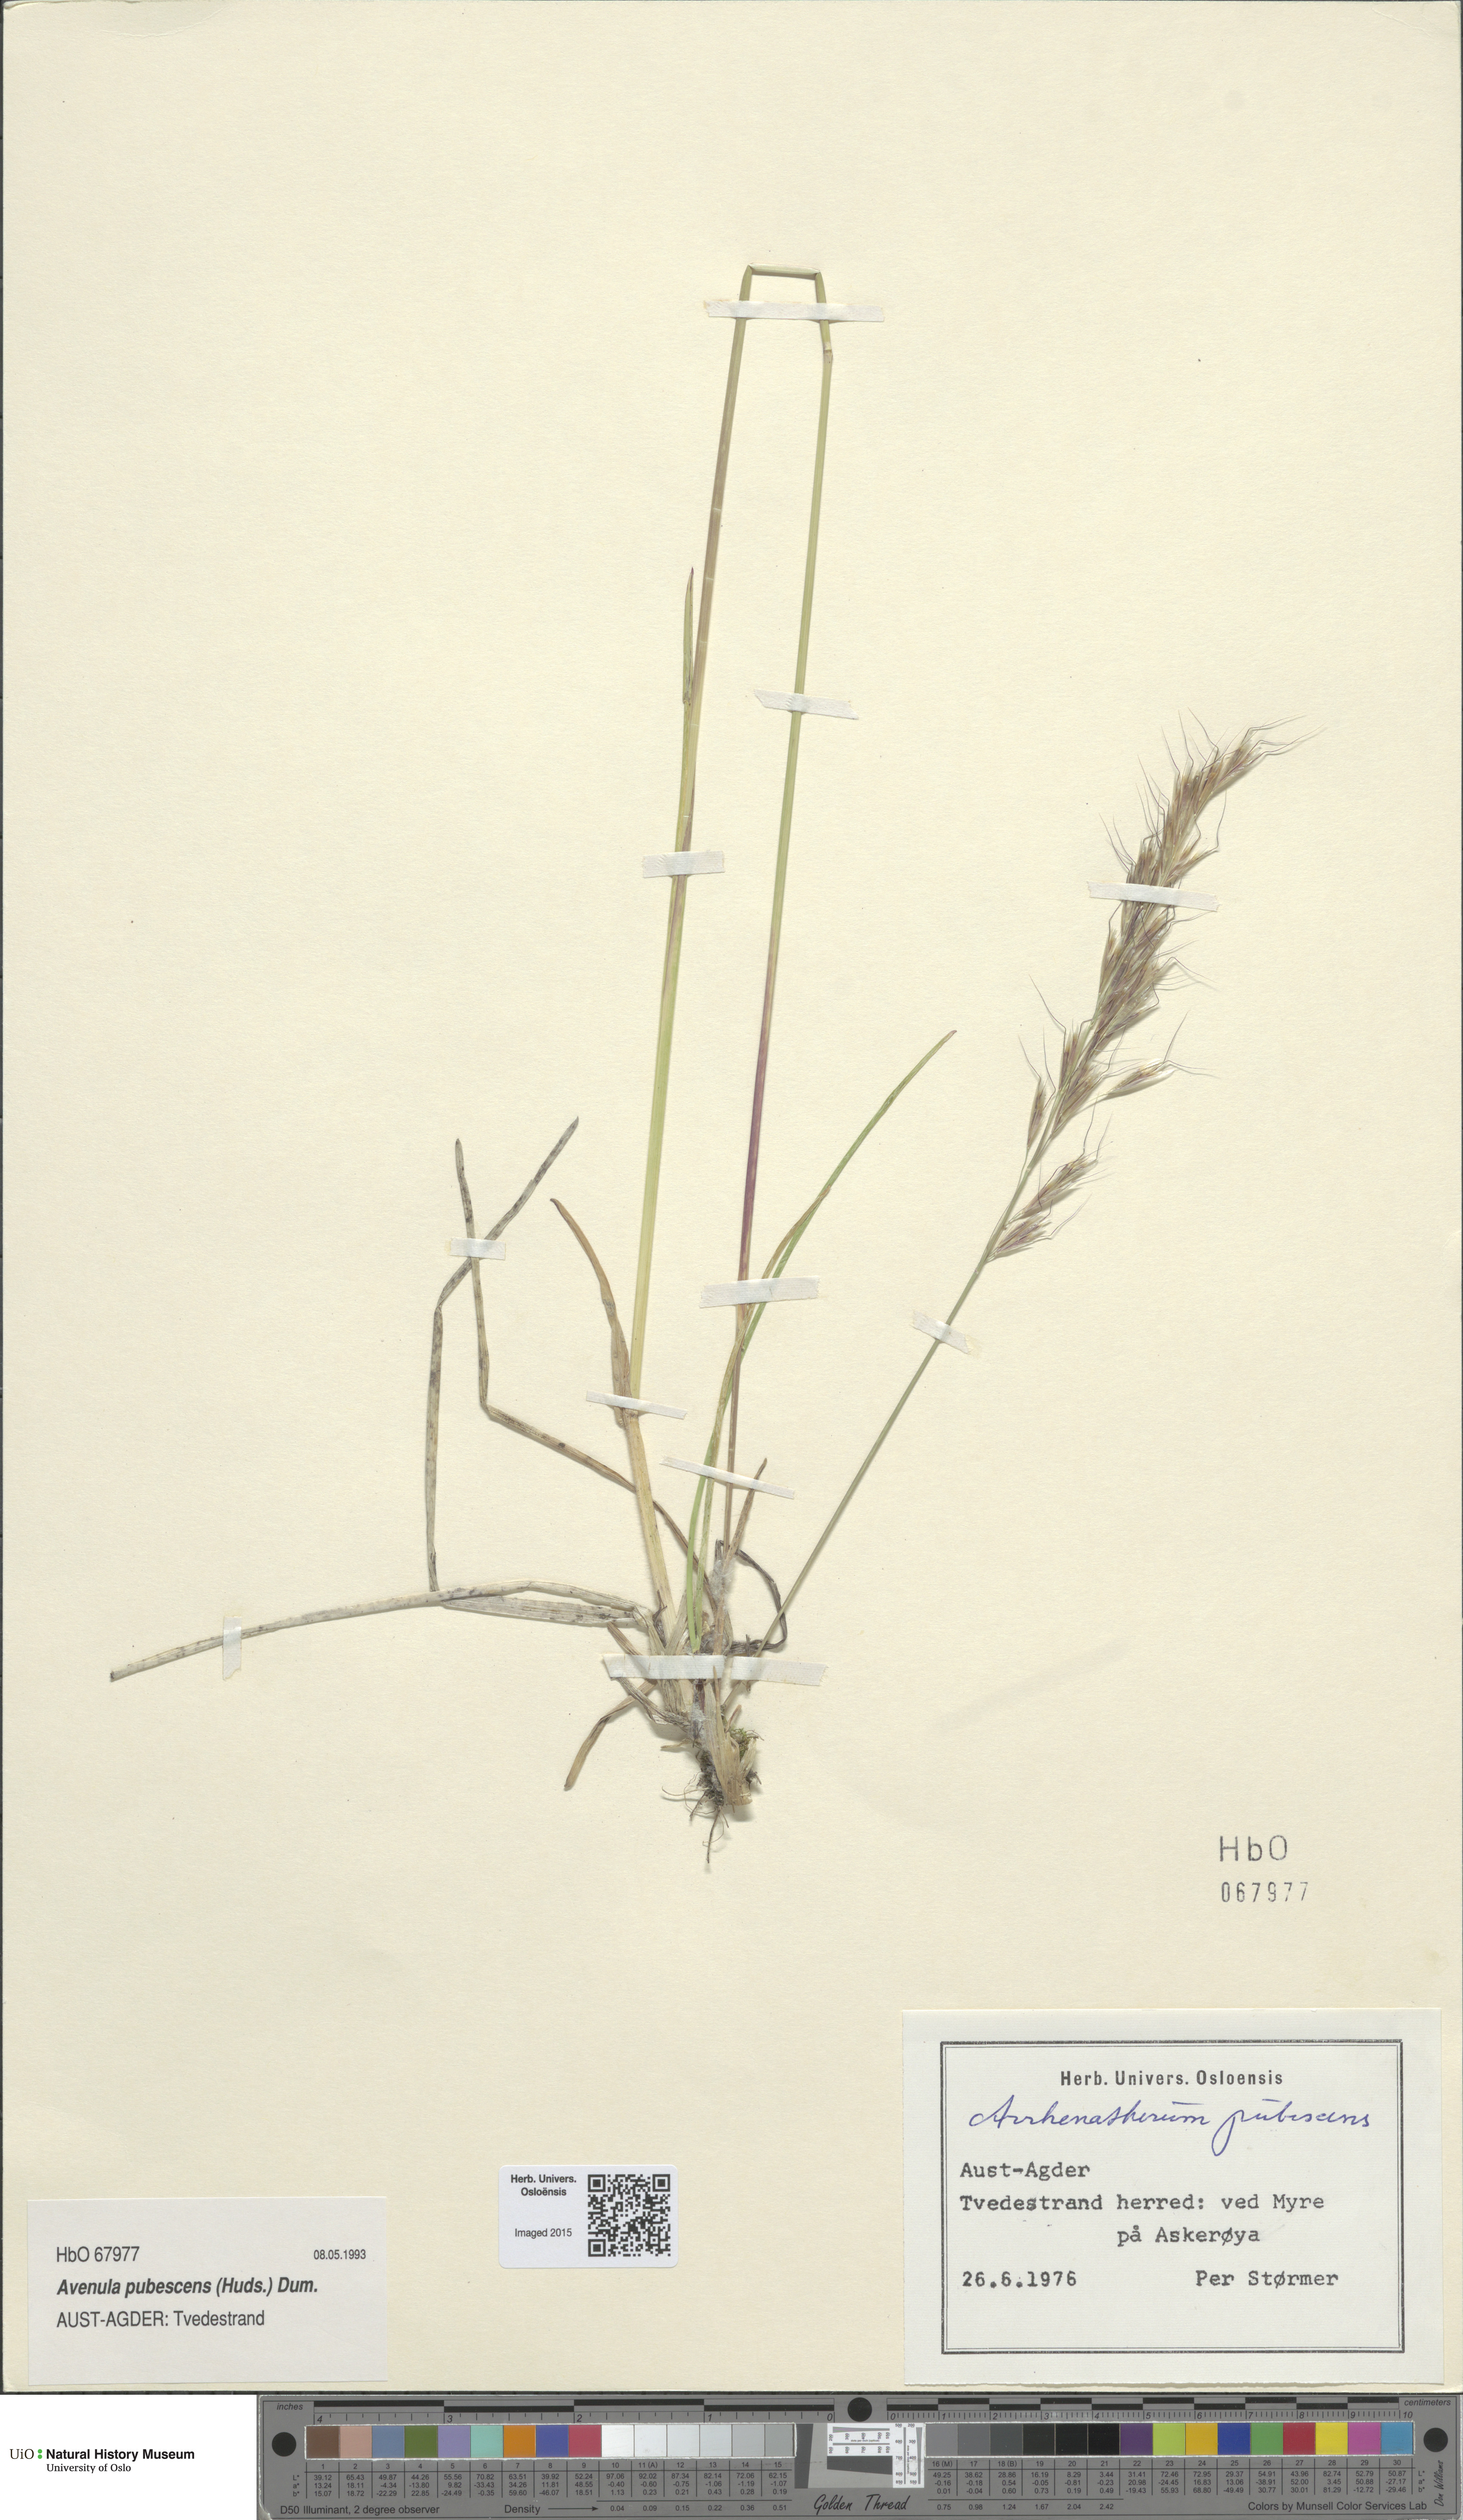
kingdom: Plantae
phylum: Tracheophyta
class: Liliopsida
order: Poales
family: Poaceae
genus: Avenula
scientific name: Avenula pubescens
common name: Downy alpine oatgrass
